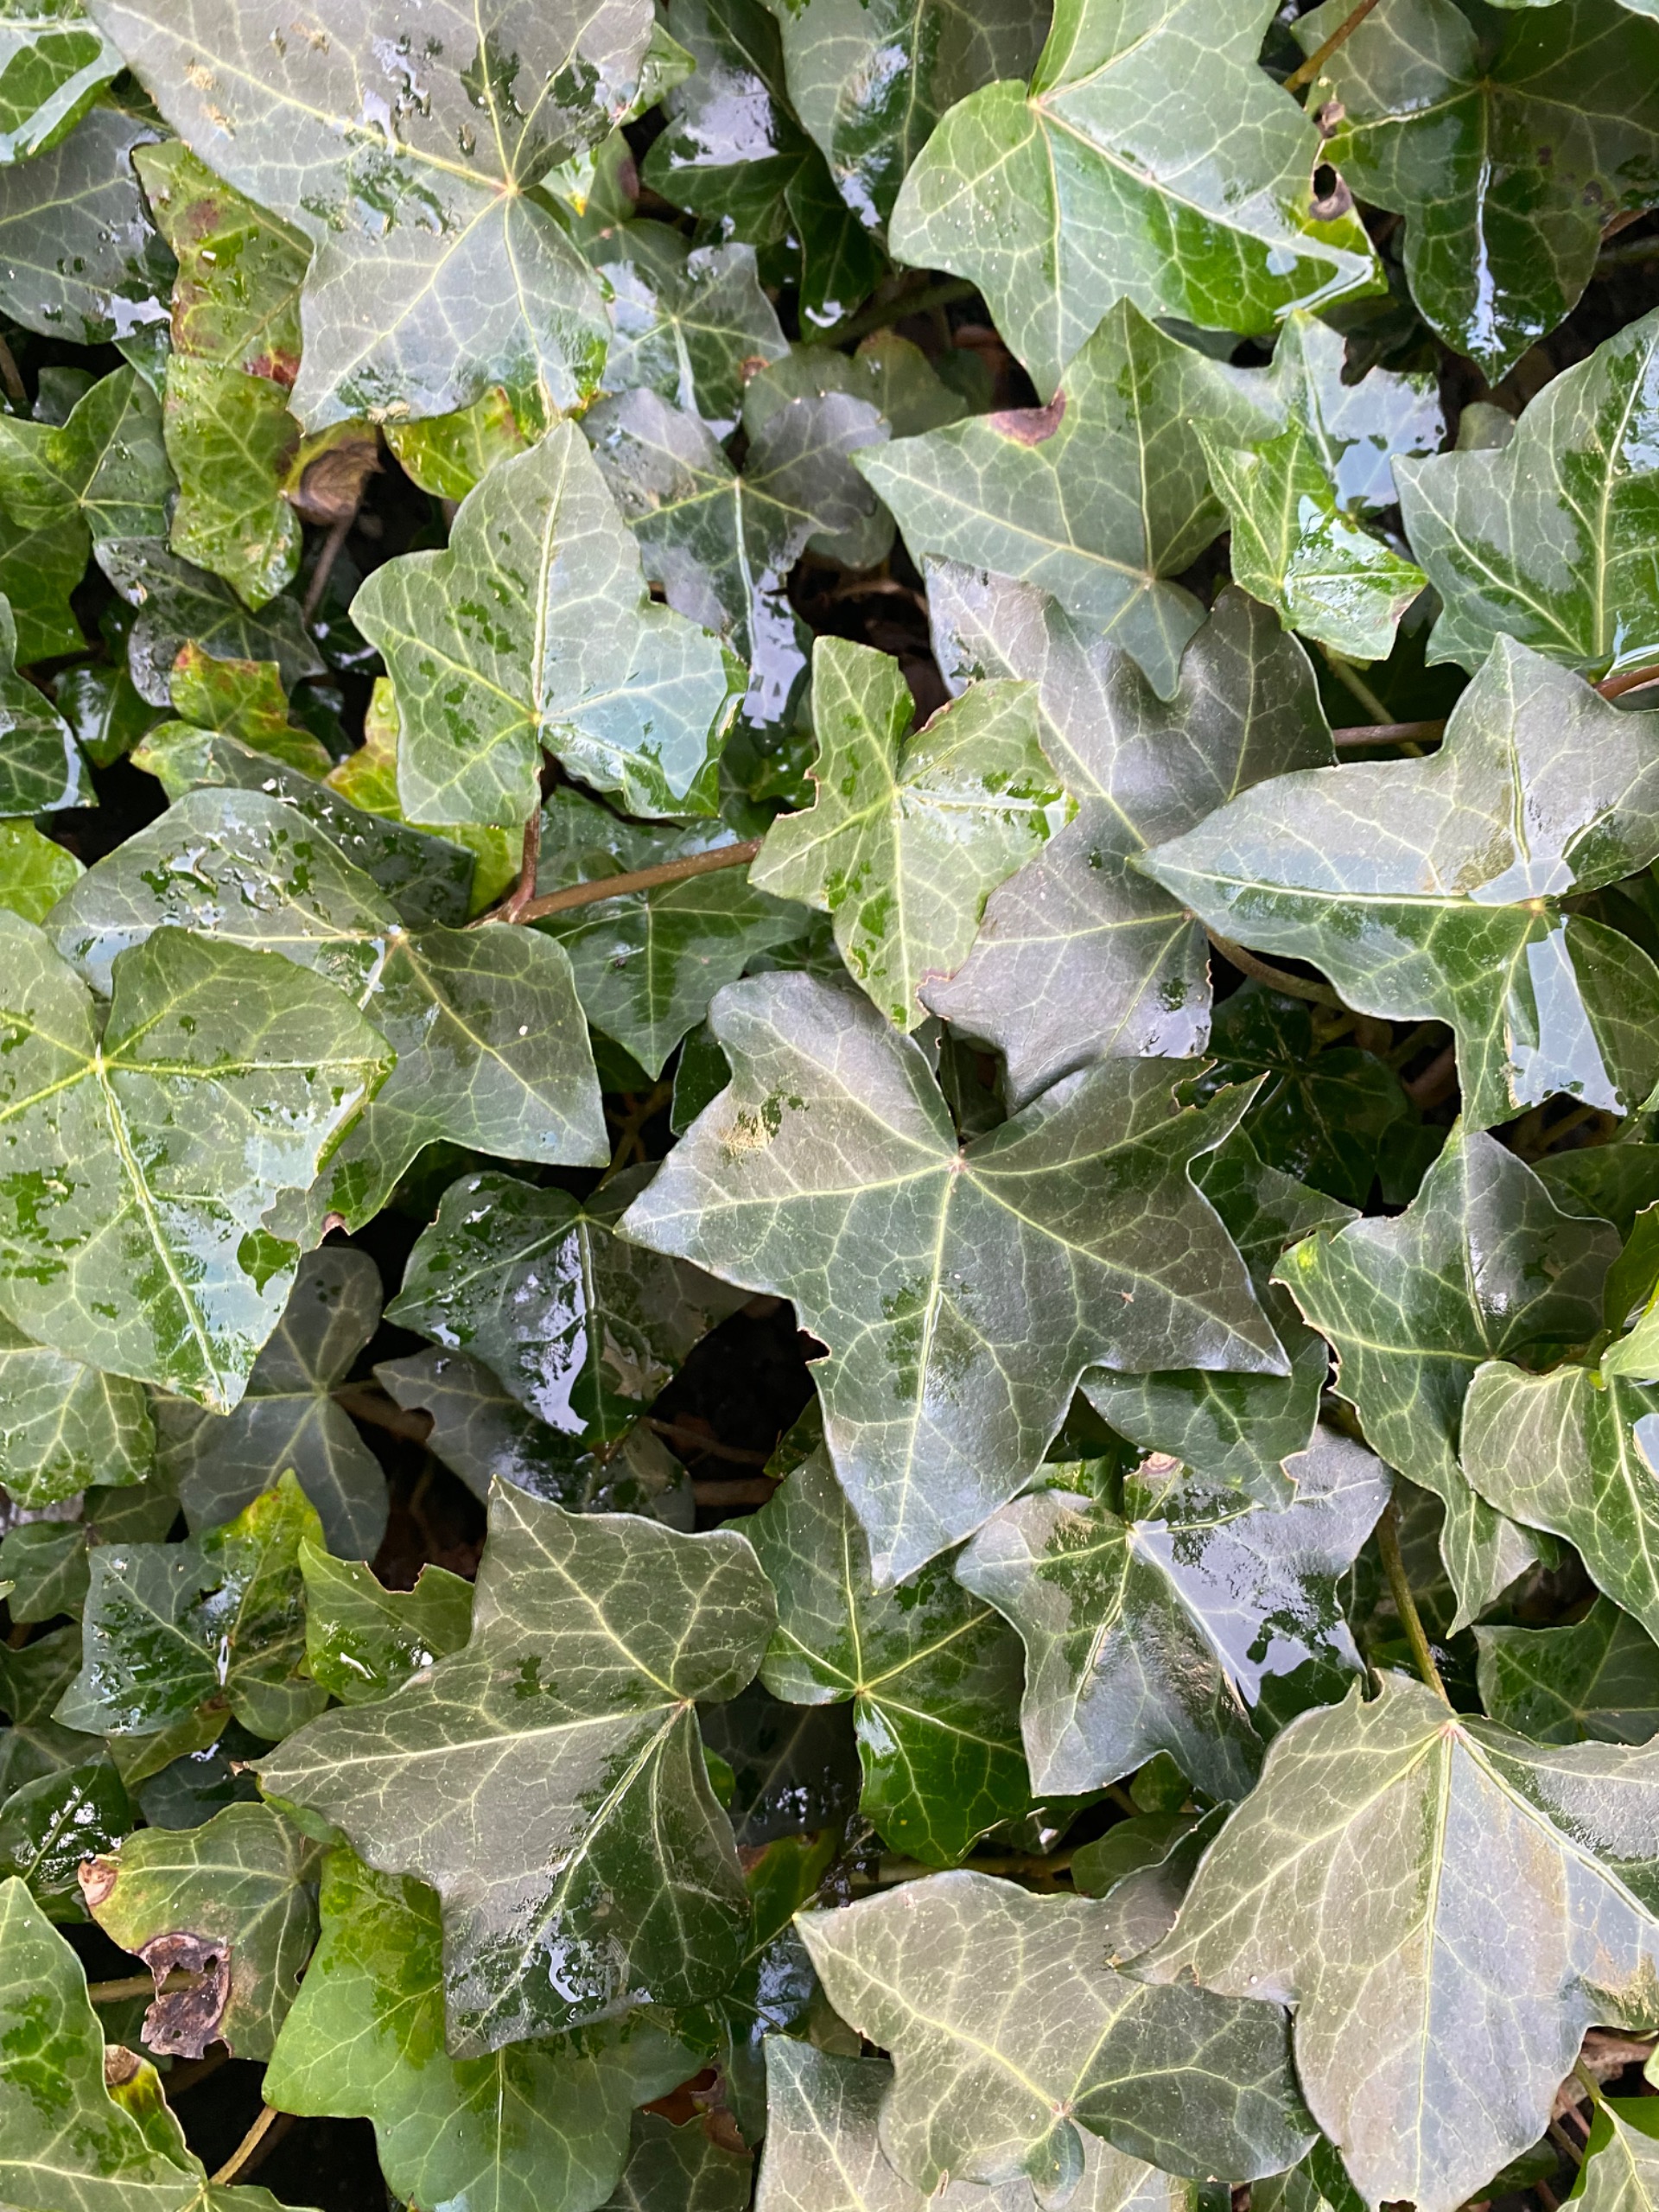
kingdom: Plantae
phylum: Tracheophyta
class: Magnoliopsida
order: Apiales
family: Araliaceae
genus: Hedera
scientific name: Hedera hibernica
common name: Irsk vedbend
